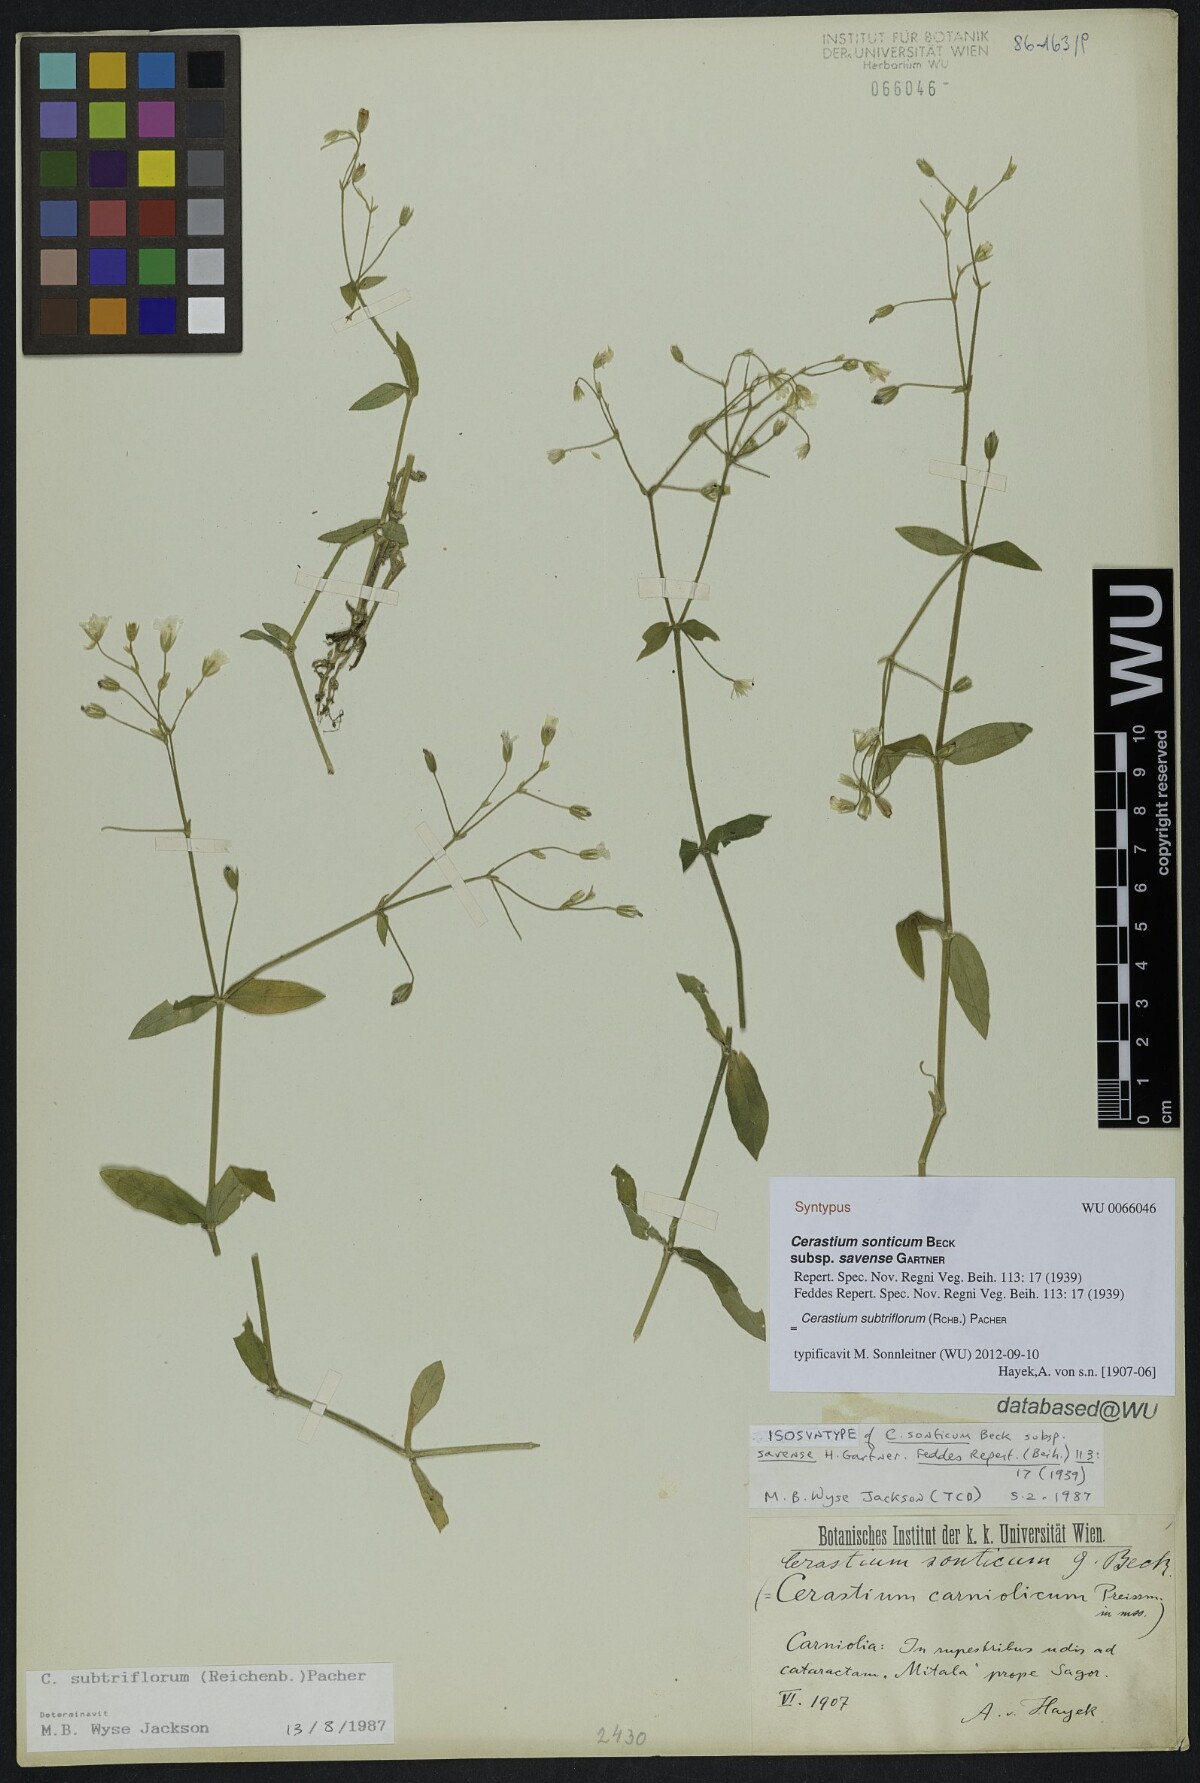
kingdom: Plantae
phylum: Tracheophyta
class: Magnoliopsida
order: Caryophyllales
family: Caryophyllaceae
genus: Cerastium
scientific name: Cerastium subtriflorum
